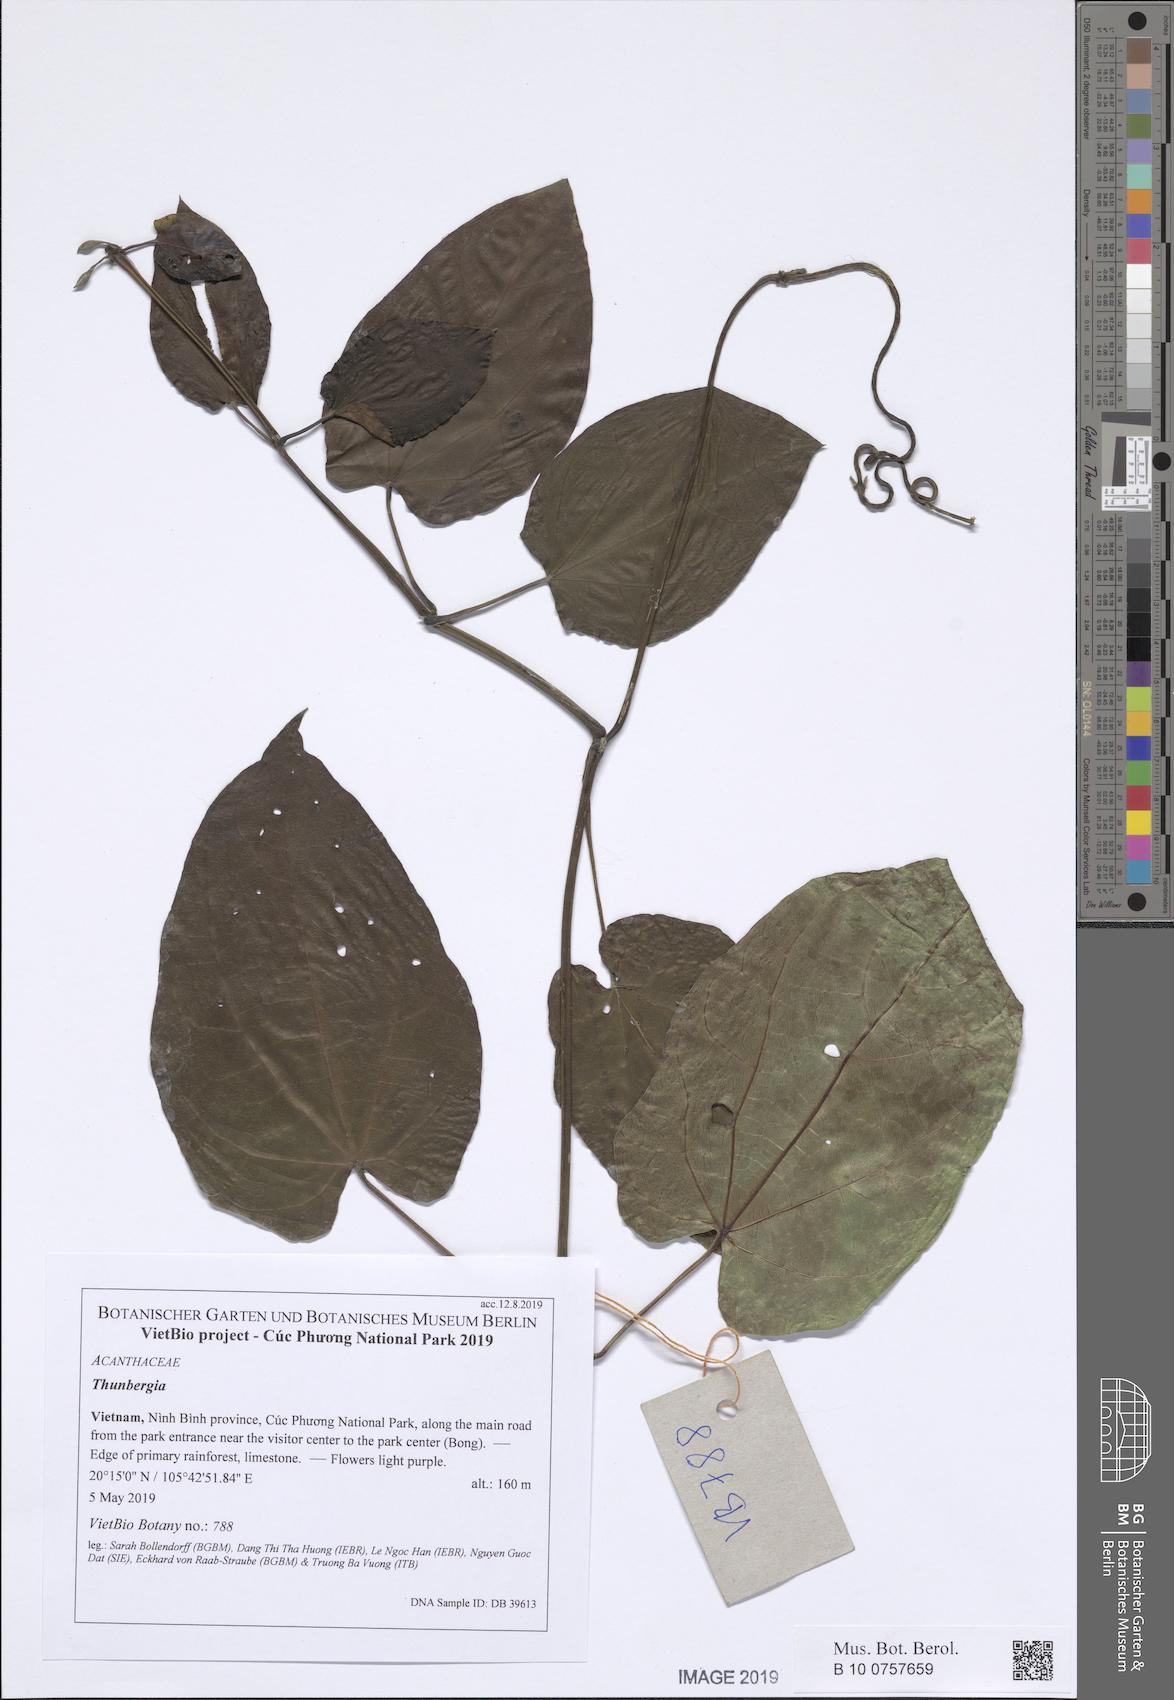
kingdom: Plantae
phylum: Tracheophyta
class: Magnoliopsida
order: Lamiales
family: Acanthaceae
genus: Thunbergia
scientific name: Thunbergia laurifolia
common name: Laurel-leaved thunbergia
